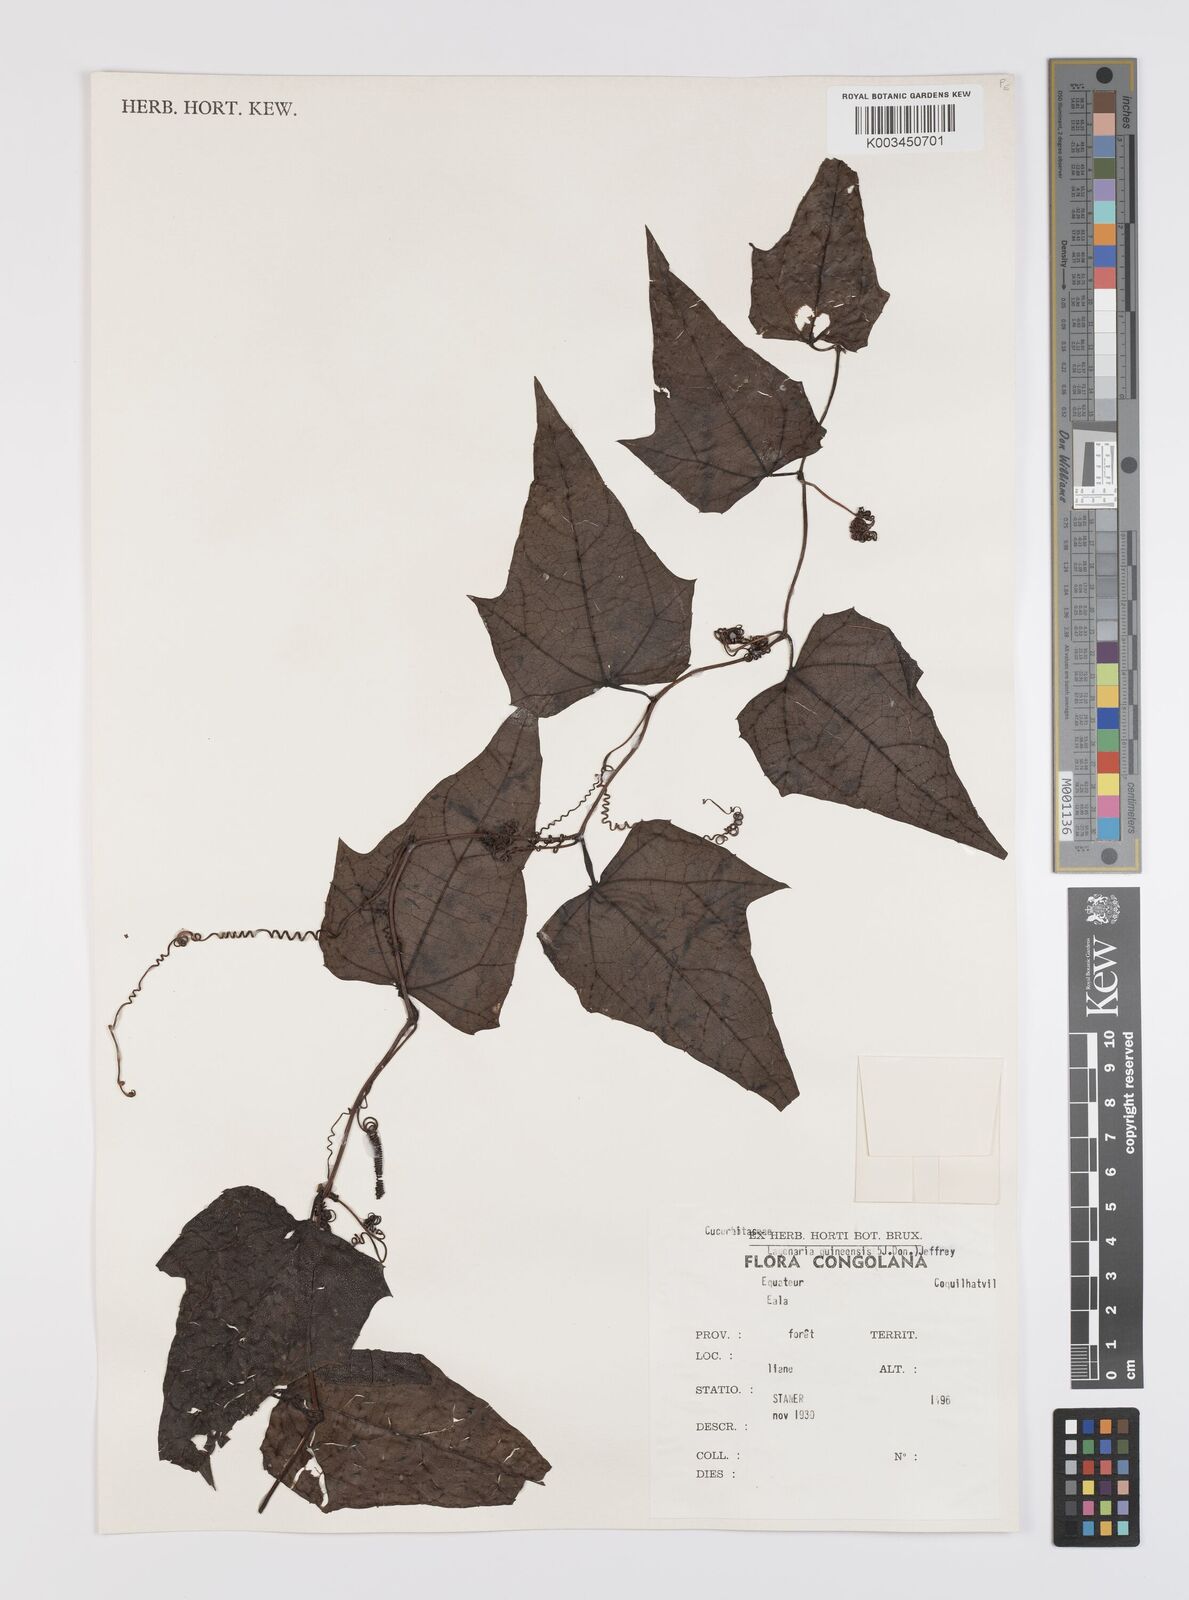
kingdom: Plantae
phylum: Tracheophyta
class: Magnoliopsida
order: Cucurbitales
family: Cucurbitaceae
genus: Lagenaria
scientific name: Lagenaria guineensis
